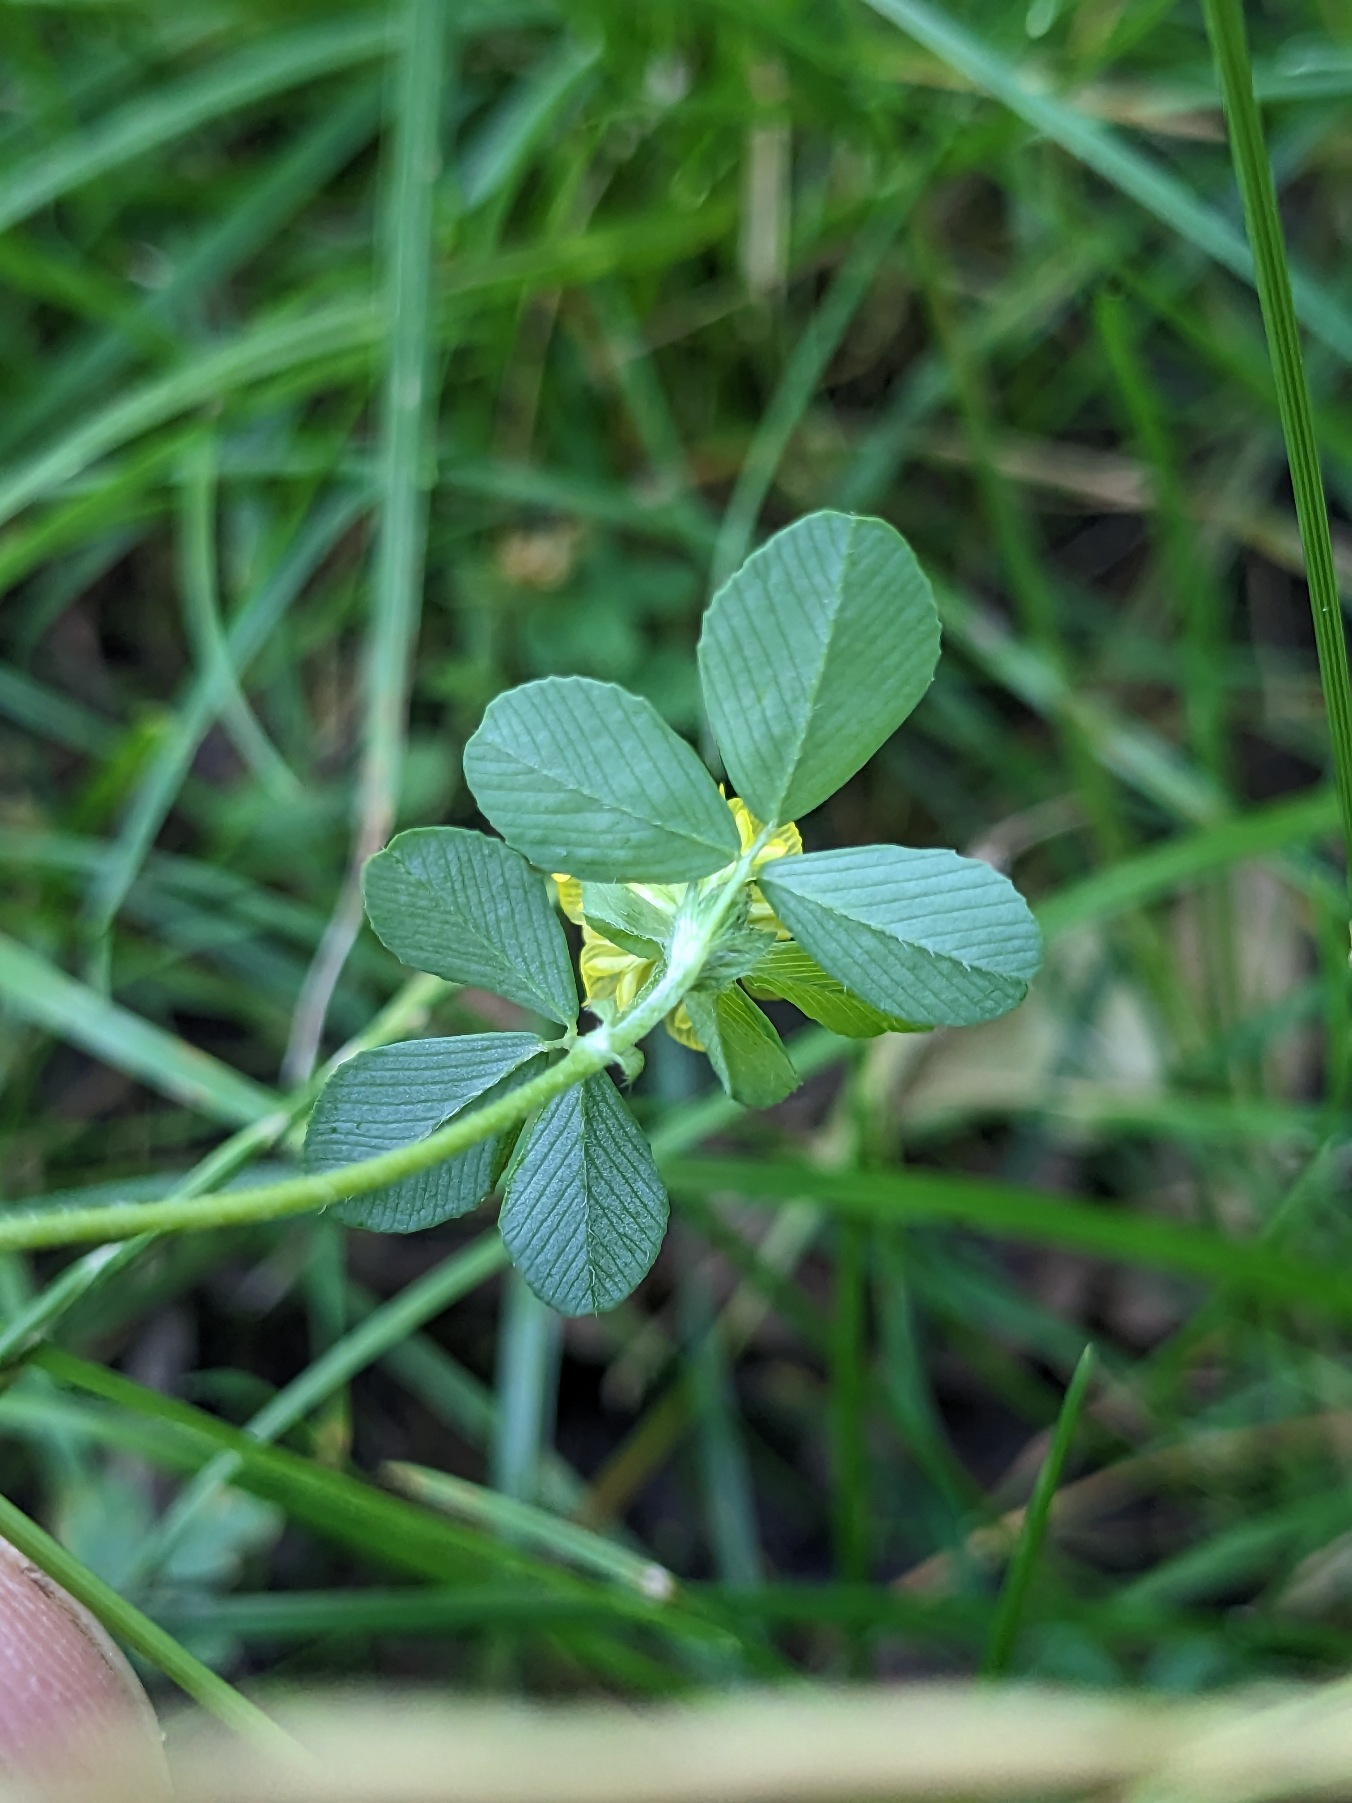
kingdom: Plantae
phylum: Tracheophyta
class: Magnoliopsida
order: Fabales
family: Fabaceae
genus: Trifolium
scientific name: Trifolium campestre
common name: Gul kløver
